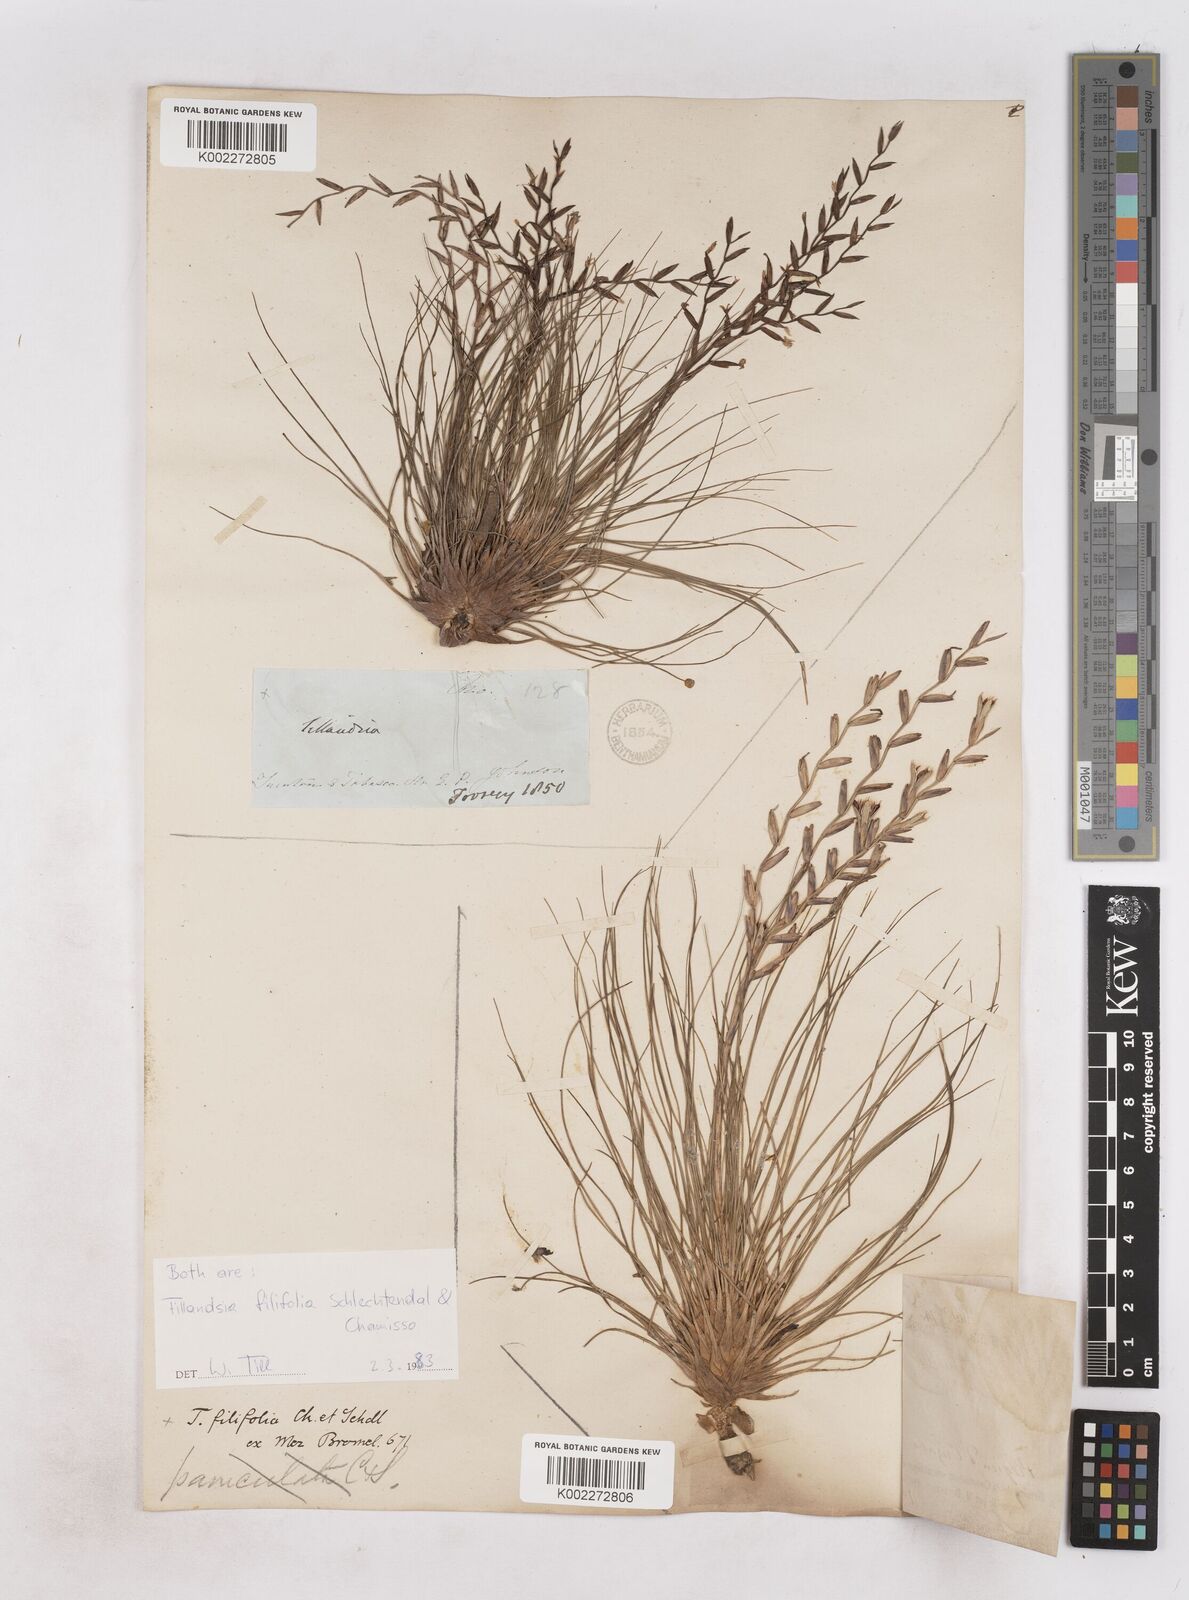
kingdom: Plantae
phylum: Tracheophyta
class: Liliopsida
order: Poales
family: Bromeliaceae
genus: Tillandsia
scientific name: Tillandsia filifolia
